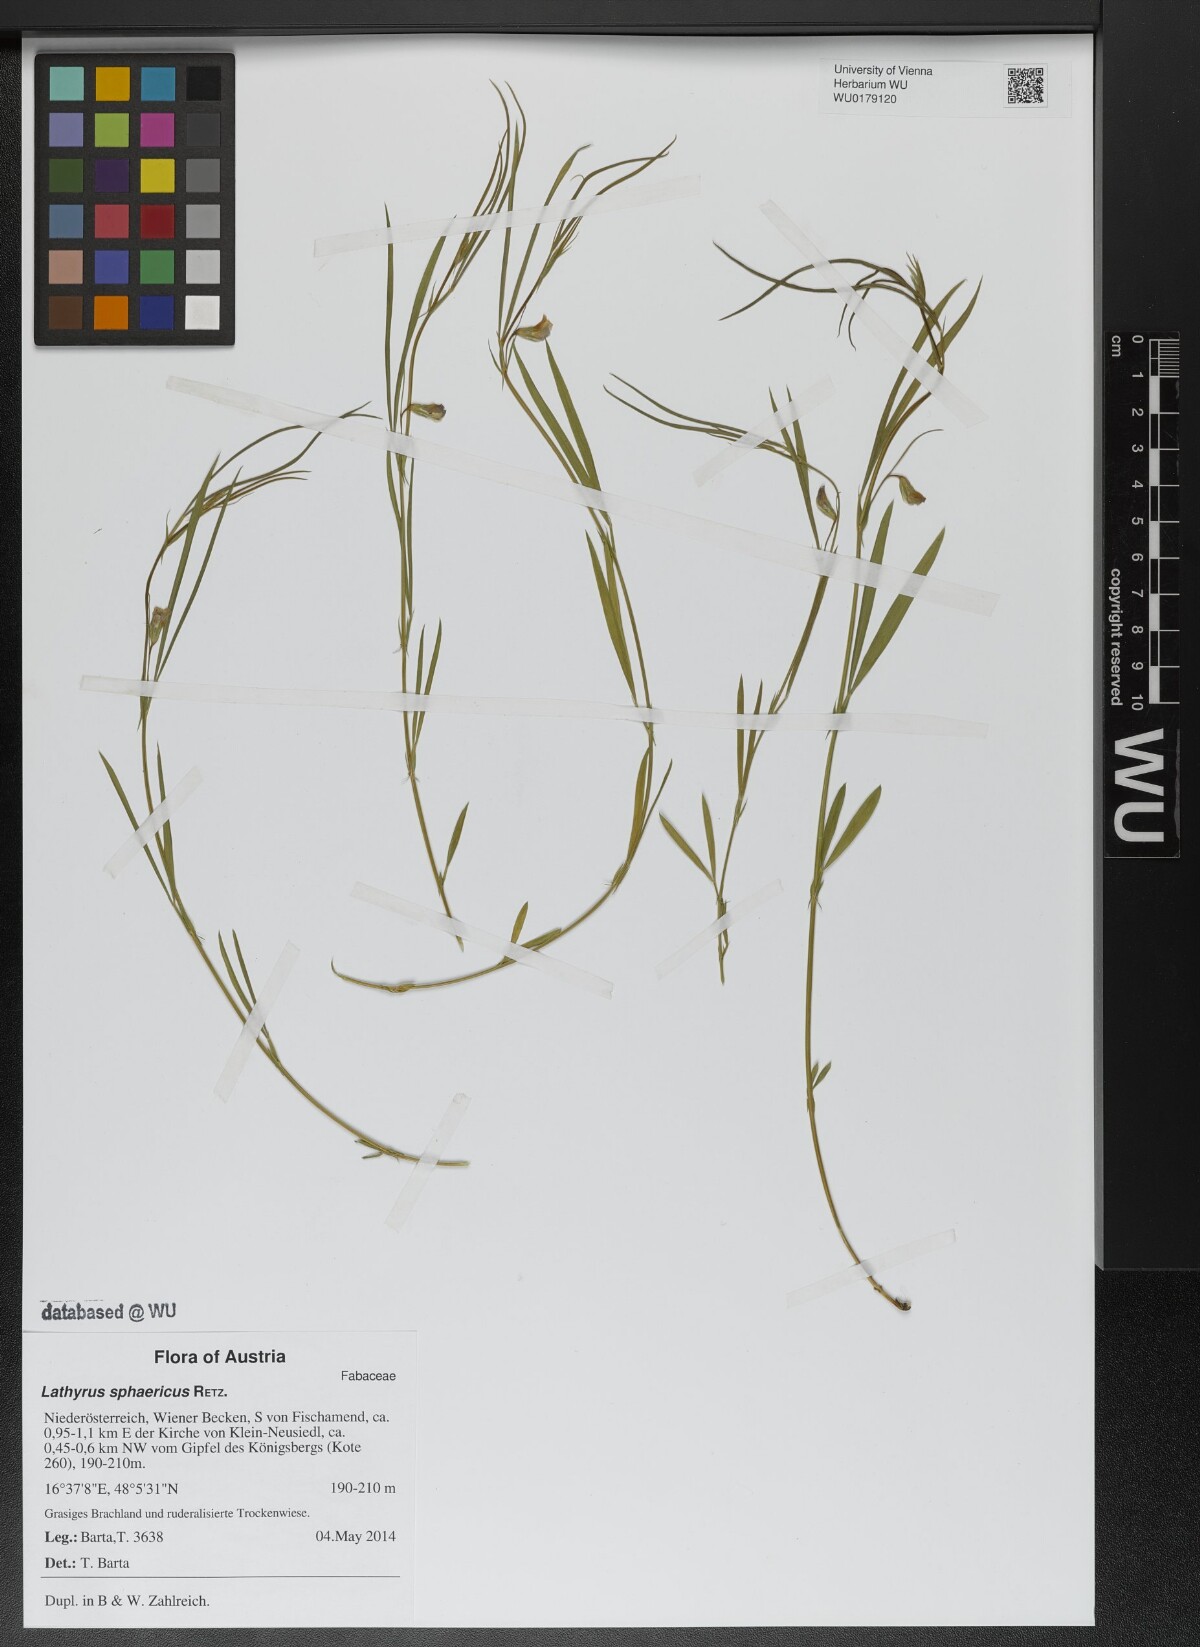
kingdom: Plantae
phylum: Tracheophyta
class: Magnoliopsida
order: Fabales
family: Fabaceae
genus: Lathyrus
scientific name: Lathyrus sphaericus
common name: Grass pea
